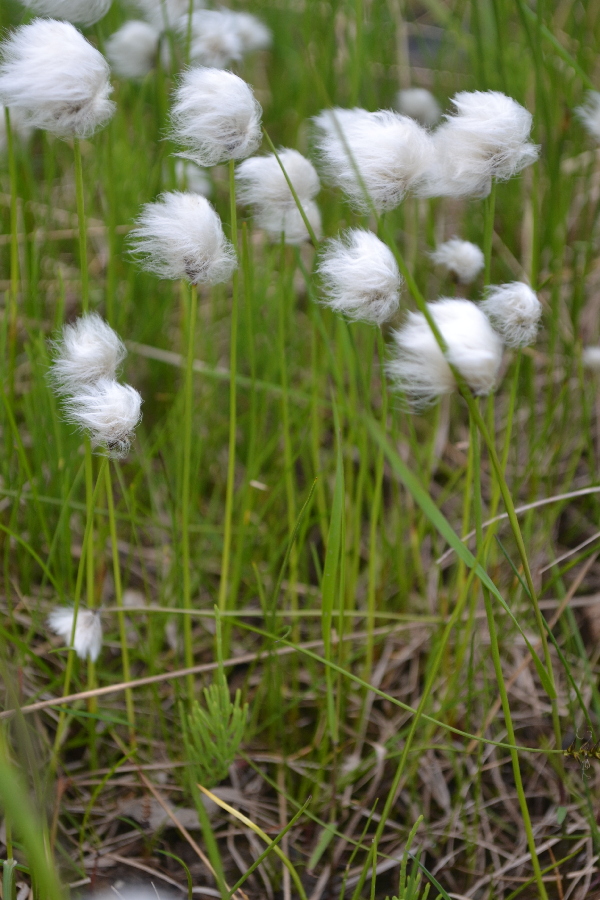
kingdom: Plantae
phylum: Tracheophyta
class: Liliopsida
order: Poales
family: Cyperaceae
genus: Eriophorum
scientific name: Eriophorum scheuchzeri
